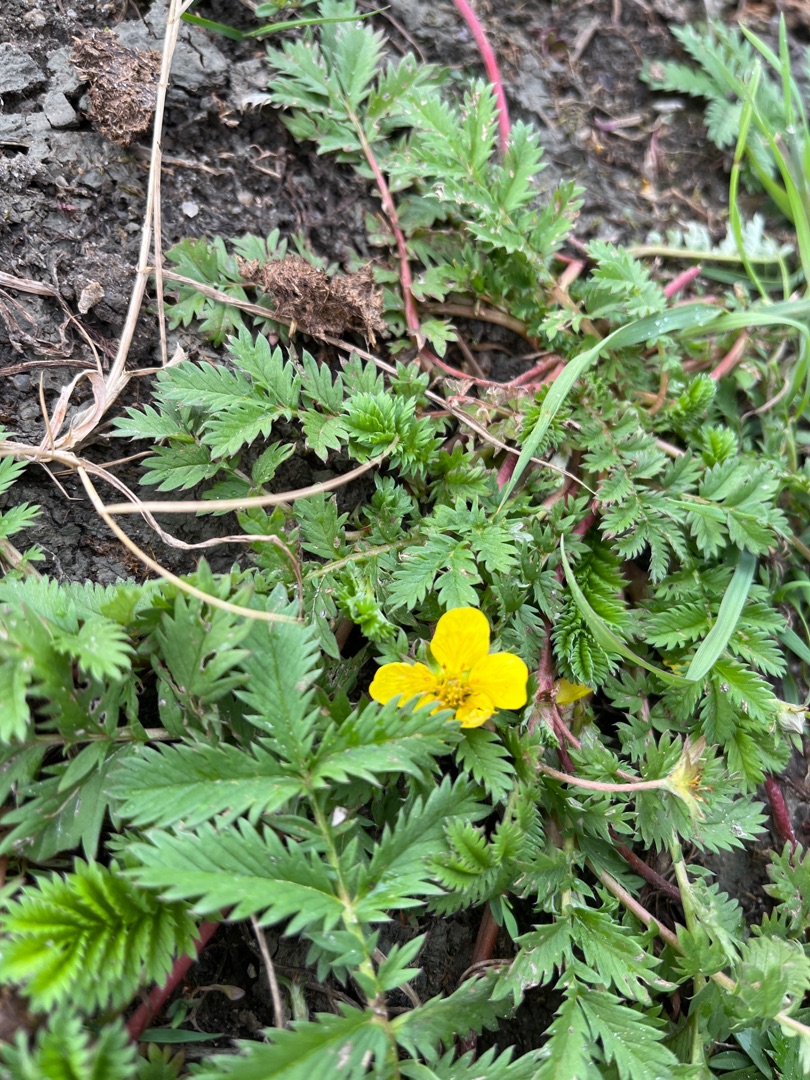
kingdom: Plantae
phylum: Tracheophyta
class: Magnoliopsida
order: Rosales
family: Rosaceae
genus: Argentina
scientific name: Argentina anserina
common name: Gåsepotentil
